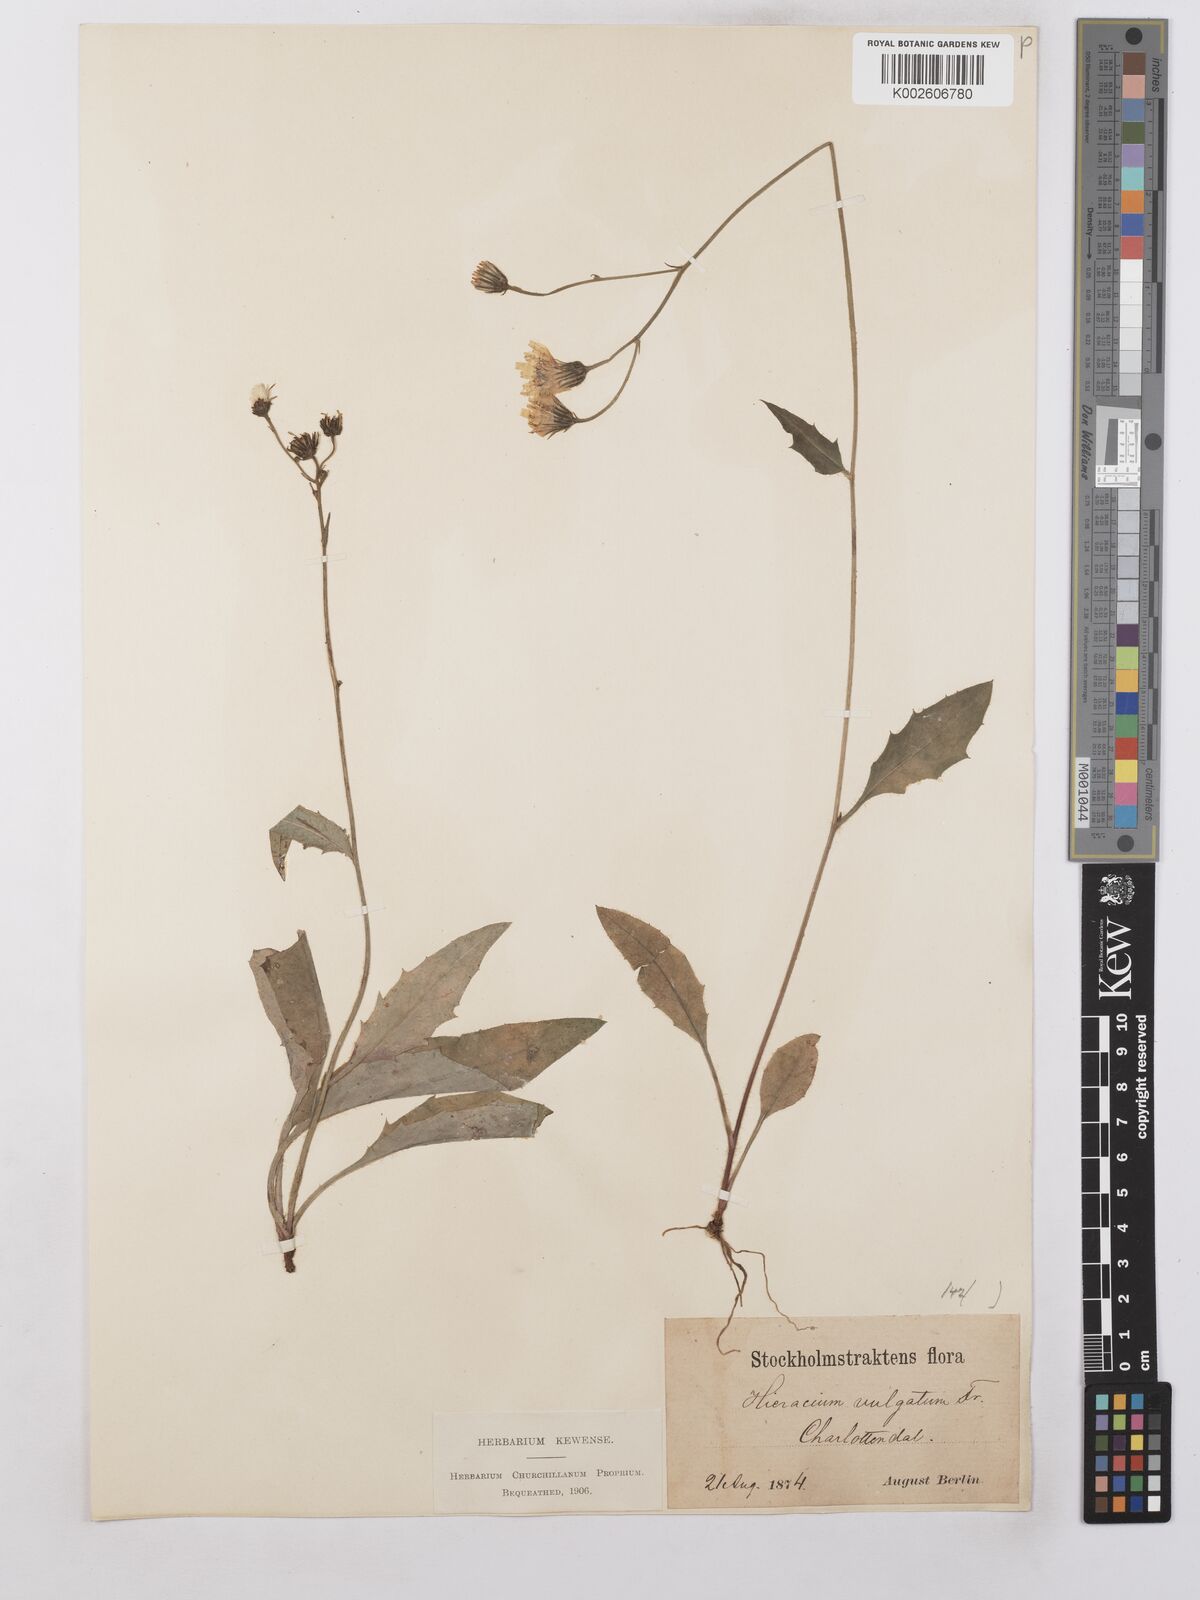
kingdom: Plantae
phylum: Tracheophyta
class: Magnoliopsida
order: Asterales
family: Asteraceae
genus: Hieracium
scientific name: Hieracium lachenalii
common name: Common hawkweed
